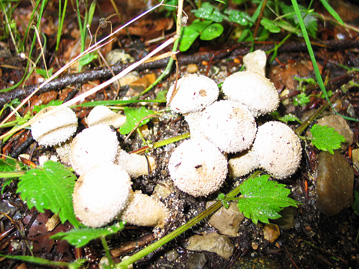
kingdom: Fungi
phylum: Basidiomycota
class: Agaricomycetes
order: Agaricales
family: Lycoperdaceae
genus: Lycoperdon
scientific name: Lycoperdon perlatum
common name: krystal-støvbold
